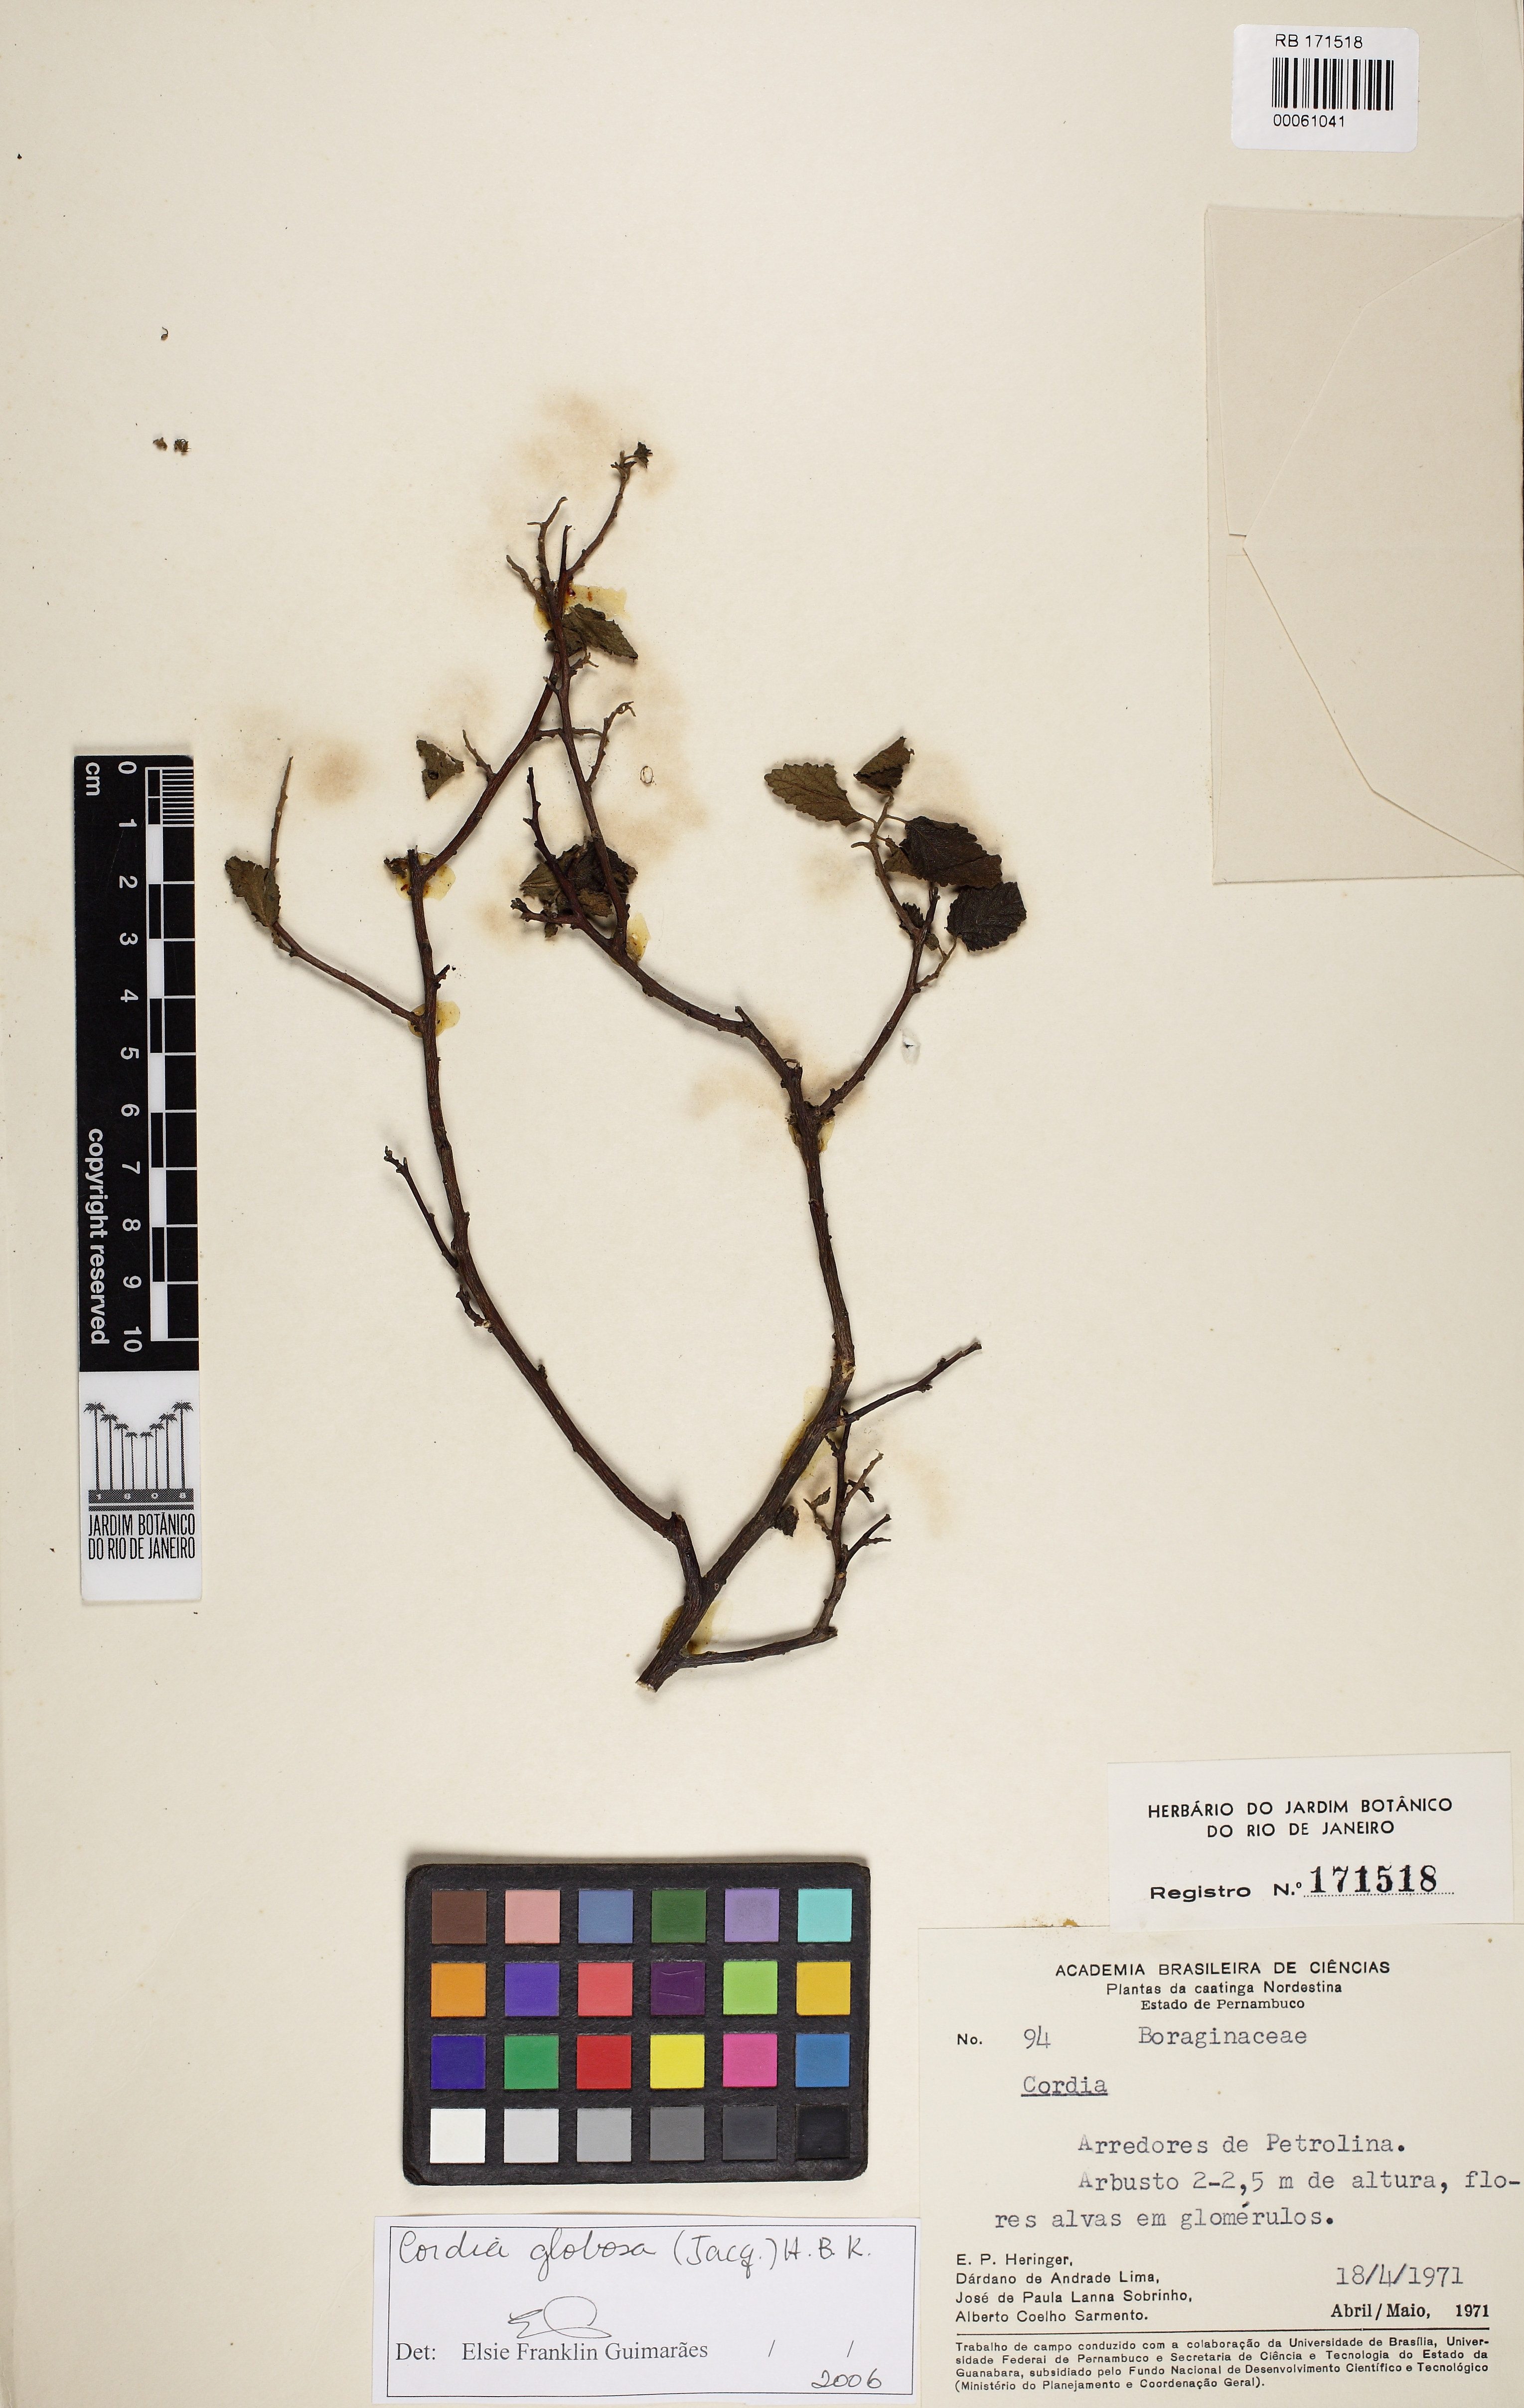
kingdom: Plantae
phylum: Tracheophyta
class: Magnoliopsida
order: Boraginales
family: Cordiaceae
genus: Varronia
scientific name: Varronia bullata
